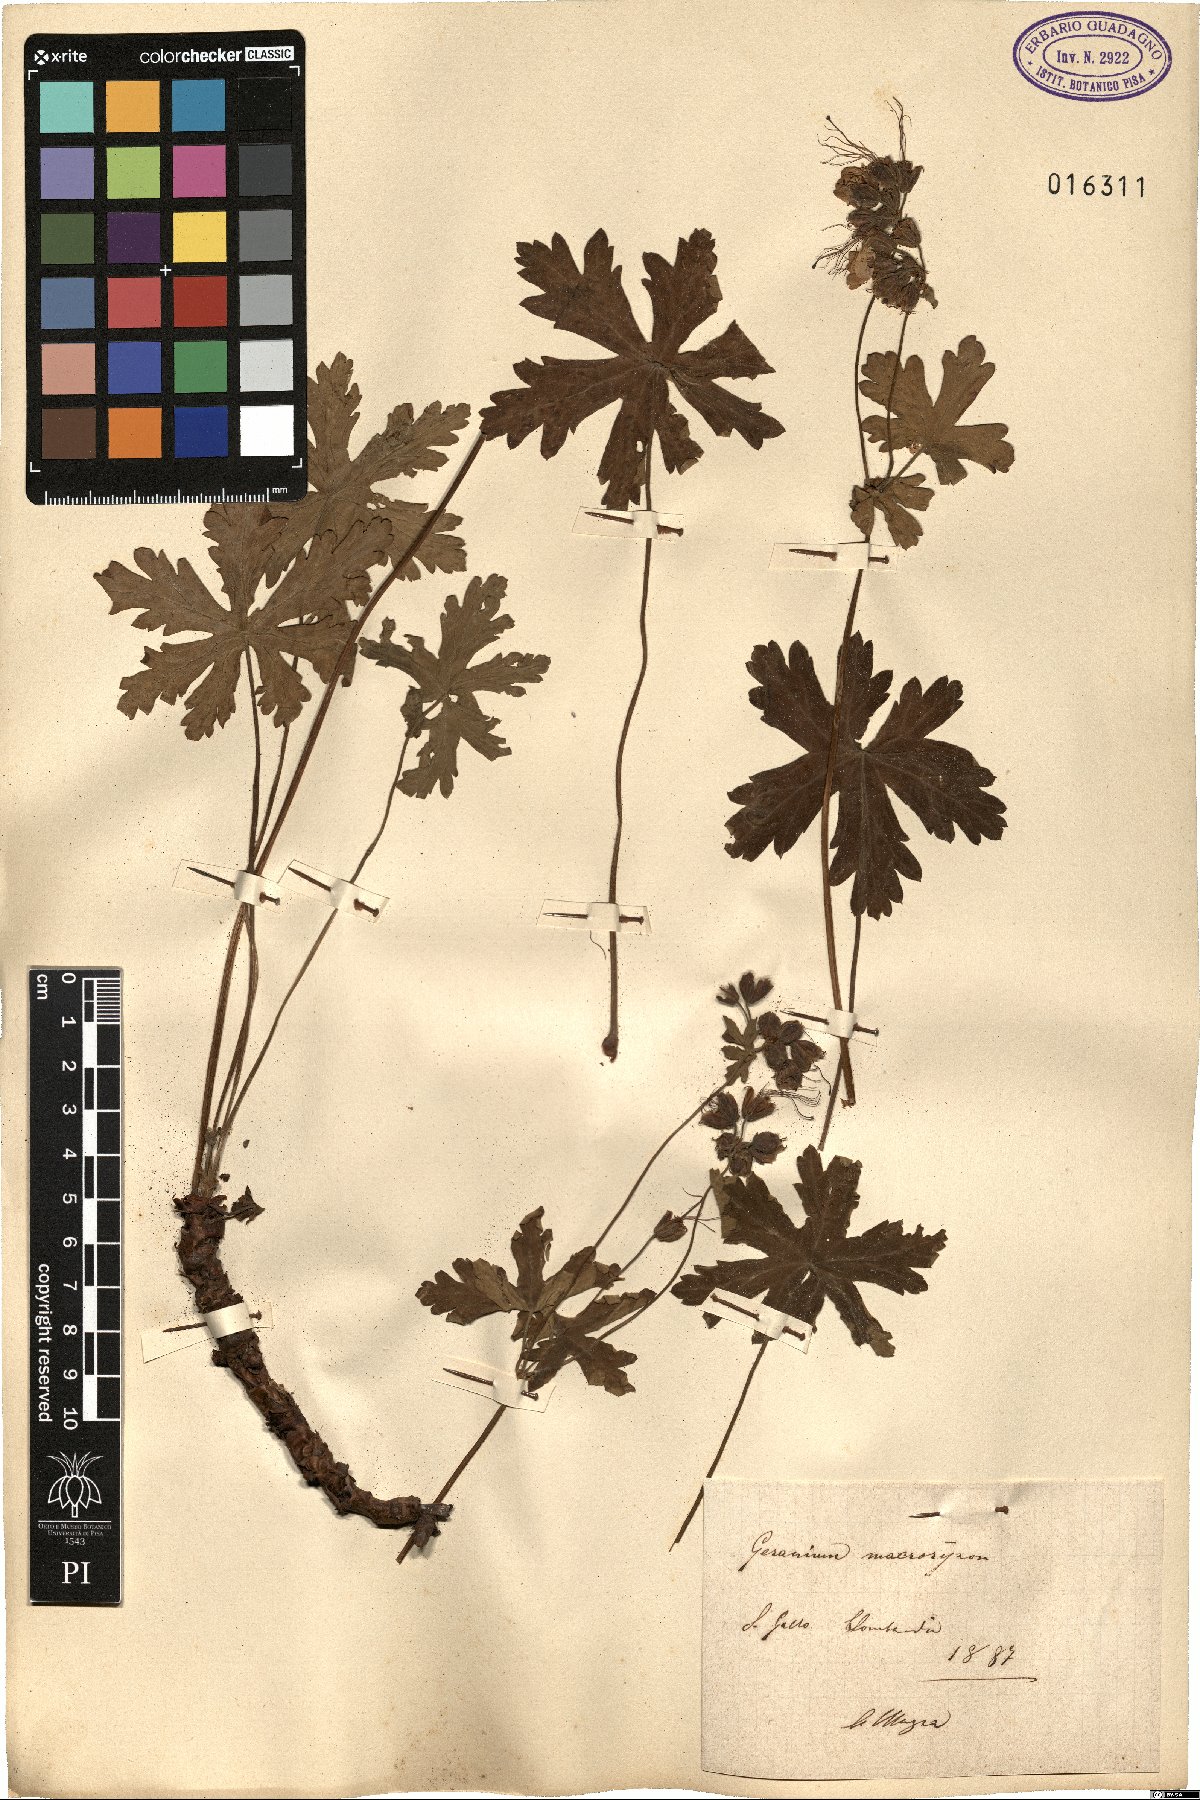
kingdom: Plantae
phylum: Tracheophyta
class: Magnoliopsida
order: Geraniales
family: Geraniaceae
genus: Geranium
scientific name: Geranium macrorrhizum
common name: Rock crane's-bill
